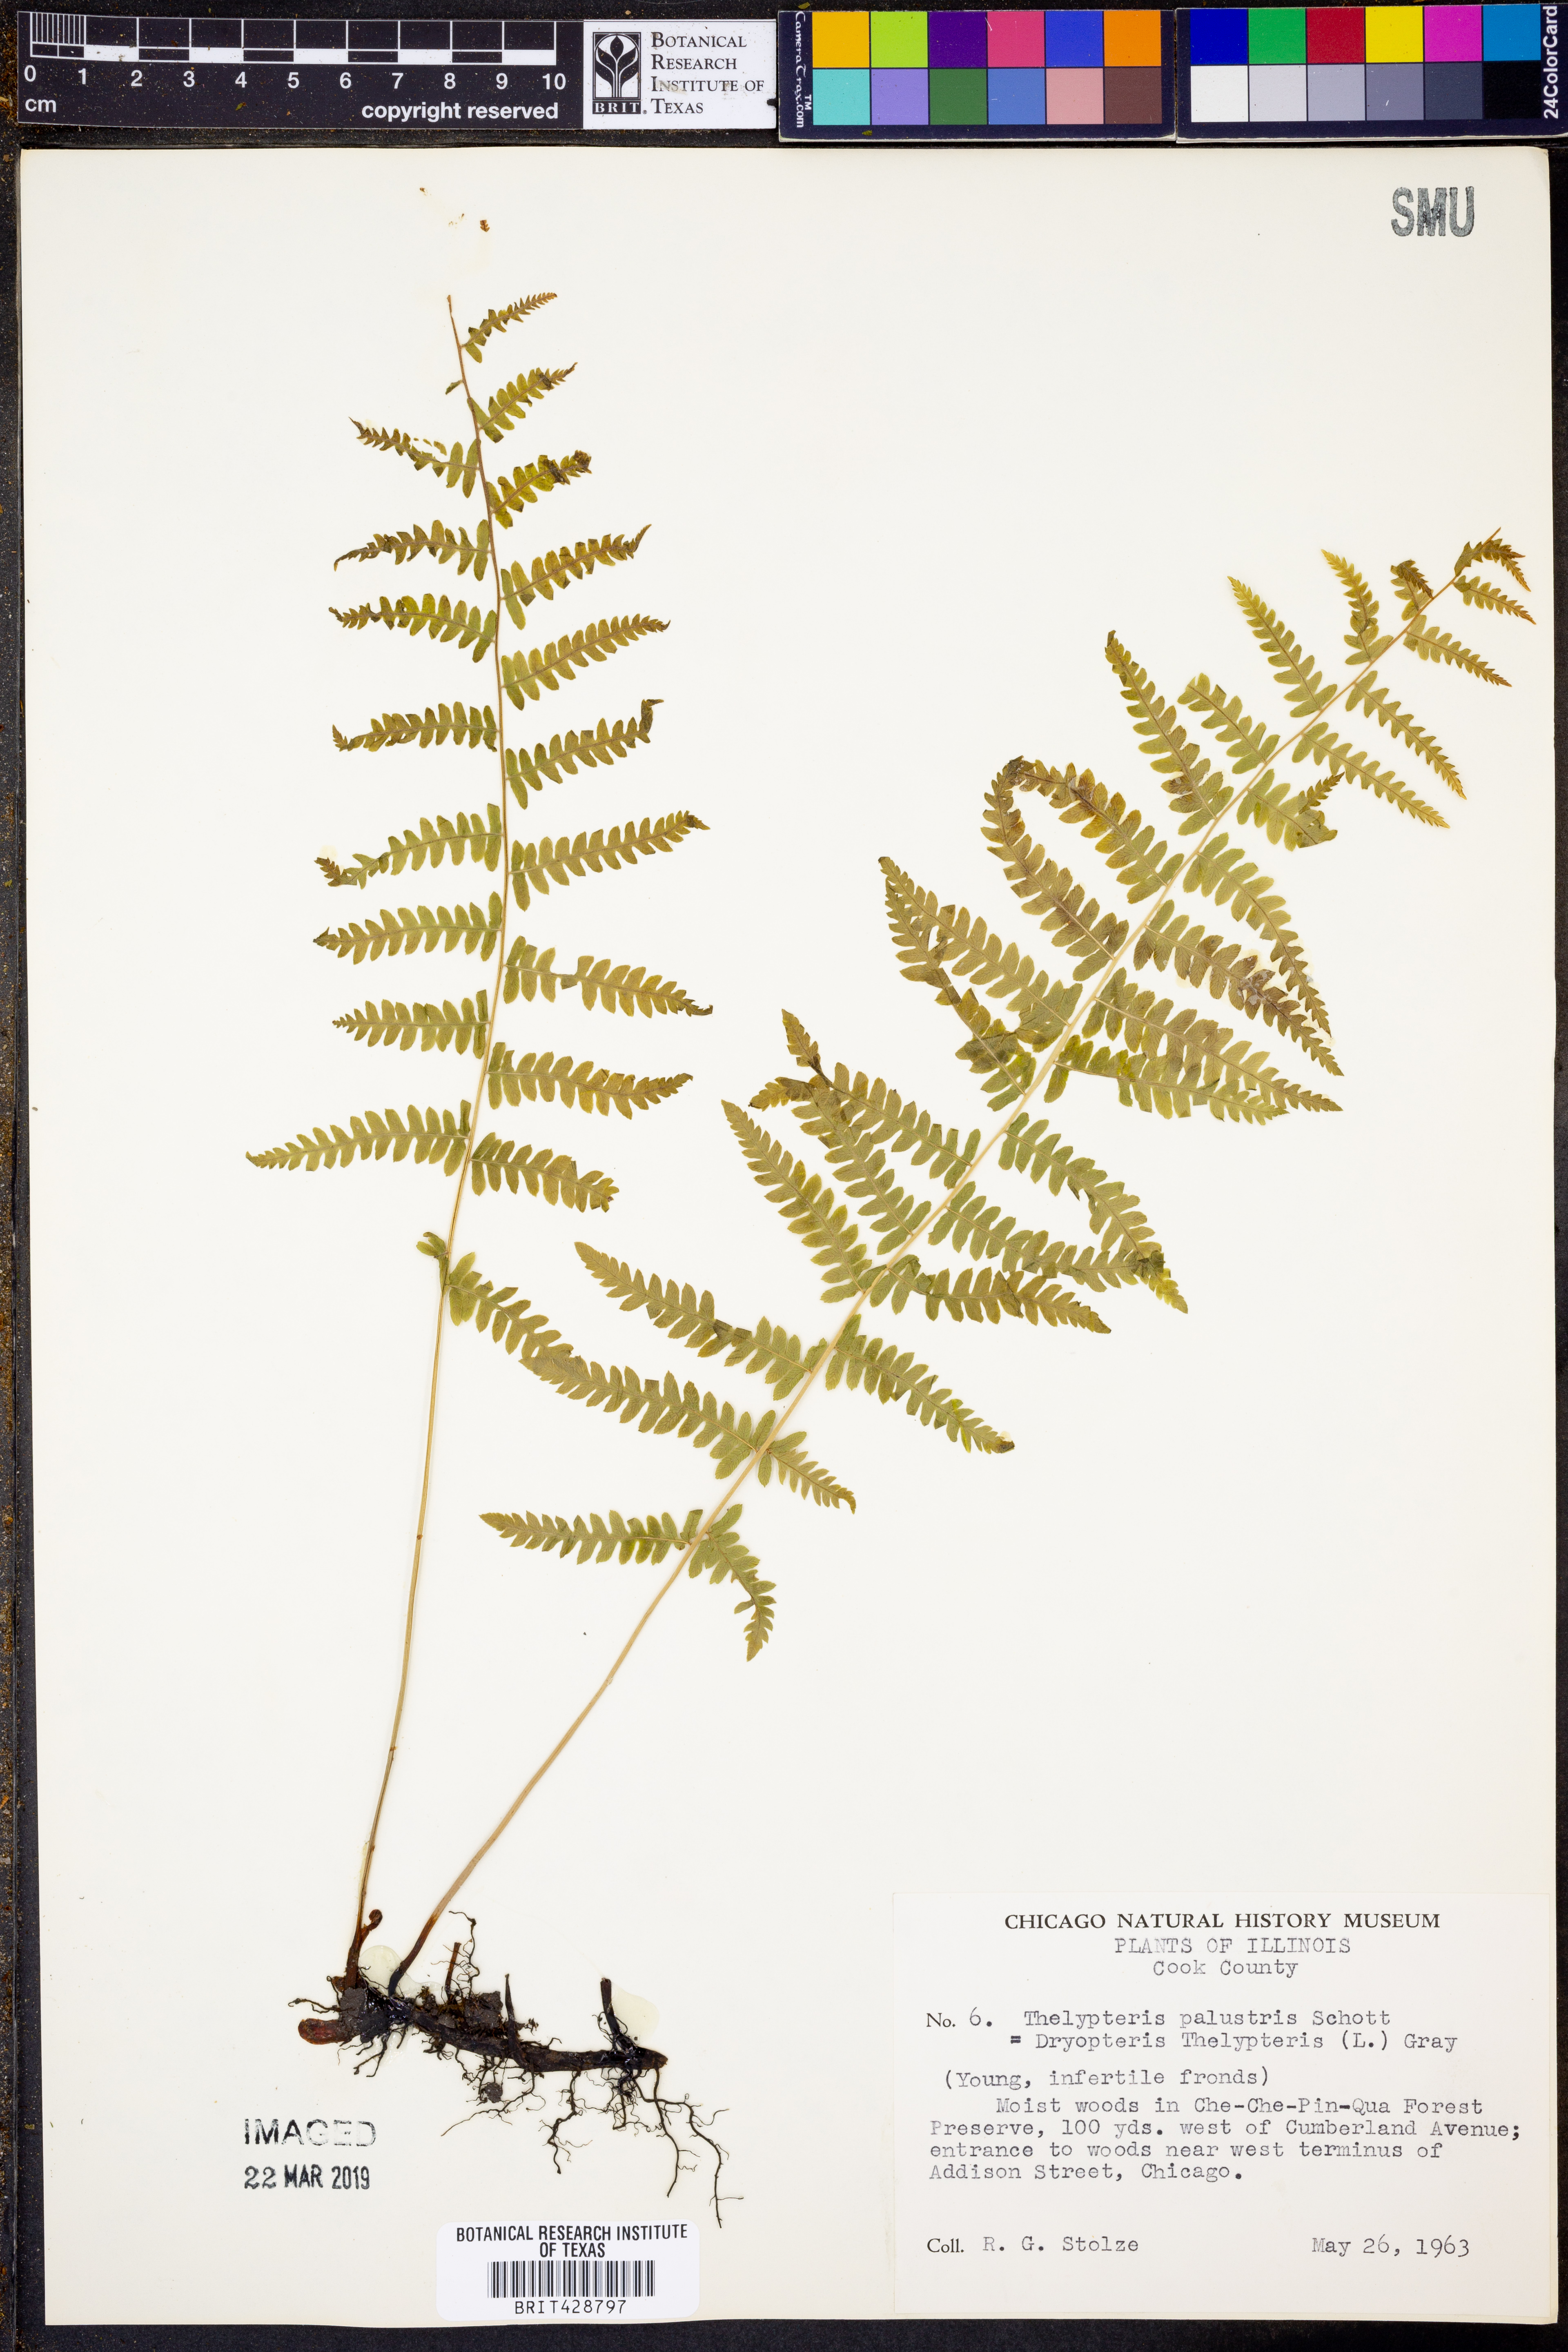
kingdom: Plantae
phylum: Tracheophyta
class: Polypodiopsida
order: Polypodiales
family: Thelypteridaceae
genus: Thelypteris
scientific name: Thelypteris palustris
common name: Marsh fern
